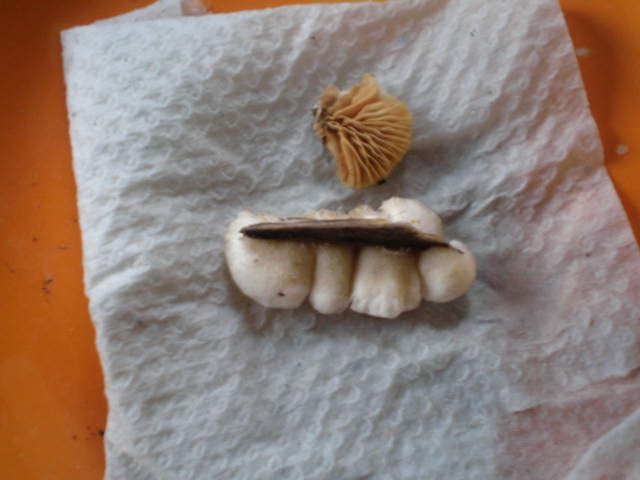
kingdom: Fungi
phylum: Basidiomycota
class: Agaricomycetes
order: Agaricales
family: Crepidotaceae
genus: Crepidotus
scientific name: Crepidotus cesatii
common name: almindelig muslingesvamp
